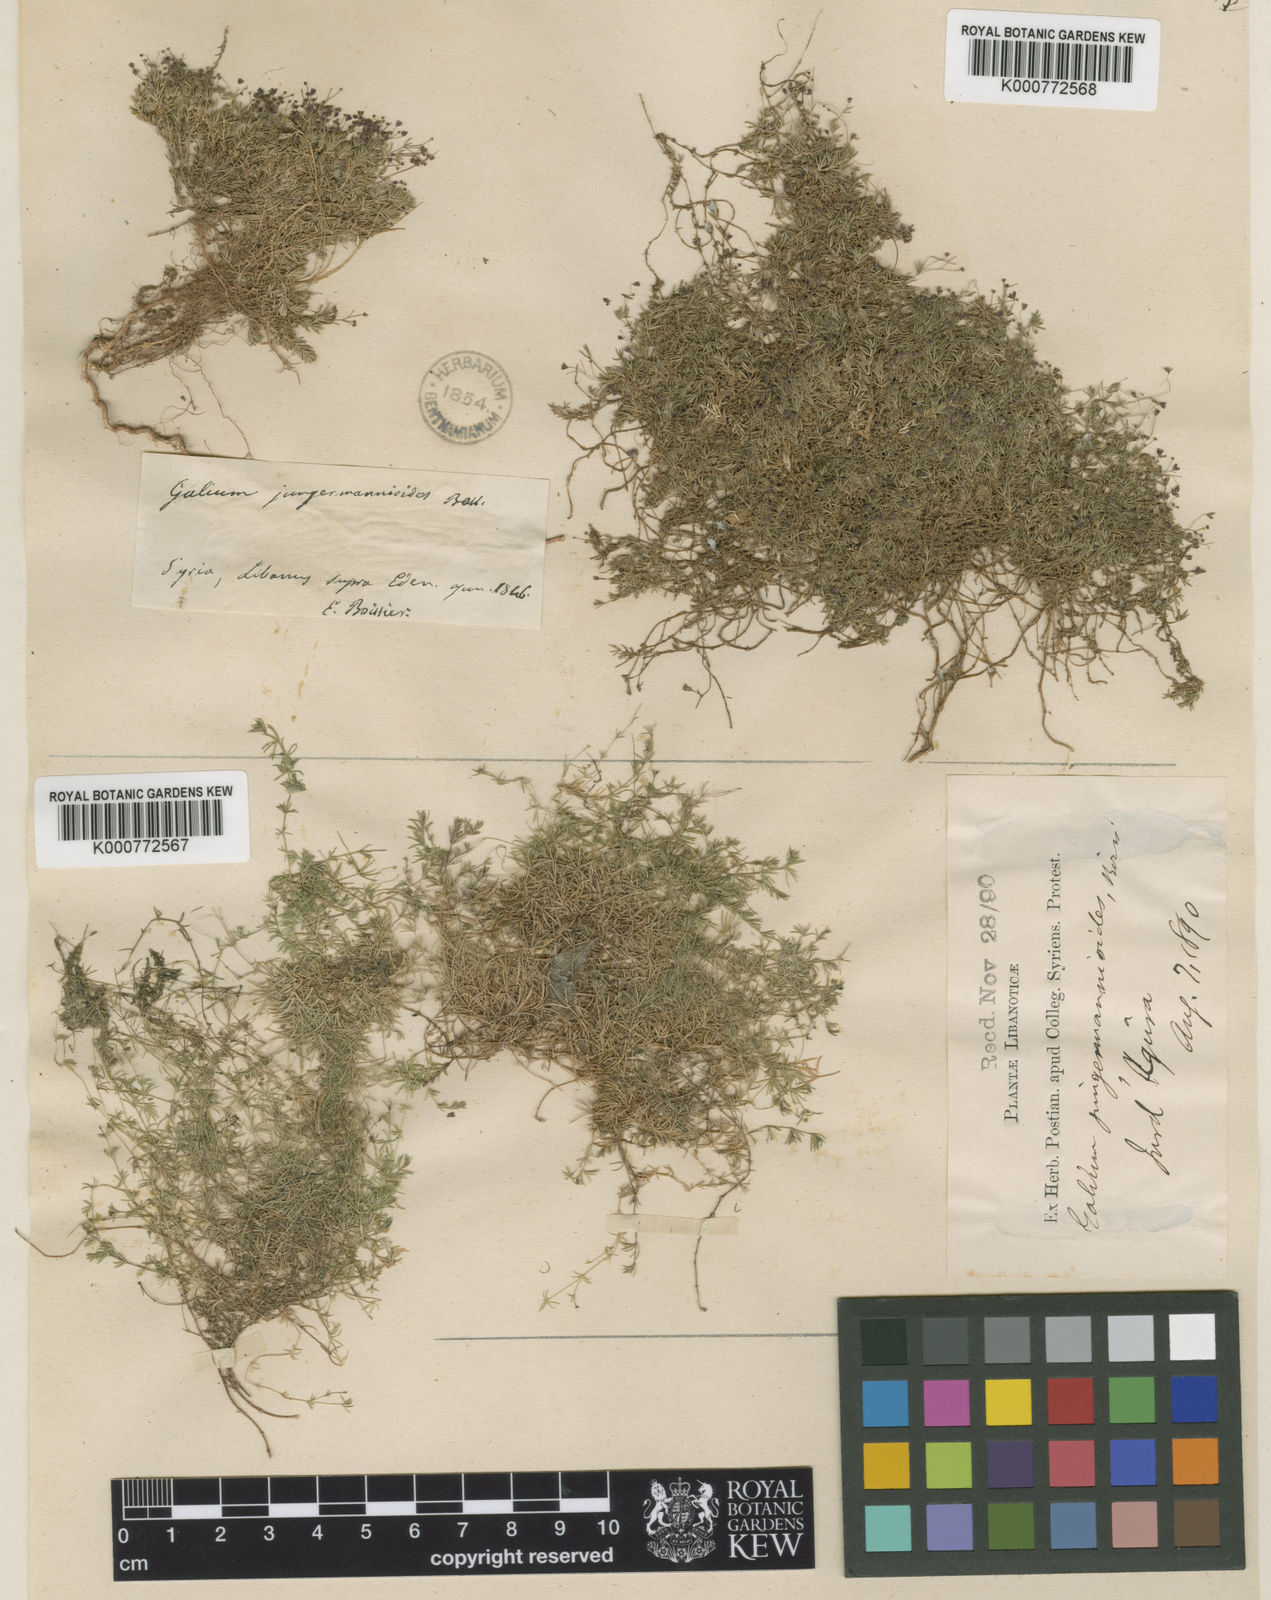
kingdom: Plantae
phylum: Tracheophyta
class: Magnoliopsida
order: Gentianales
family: Rubiaceae
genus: Galium
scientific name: Galium jungermannioides
